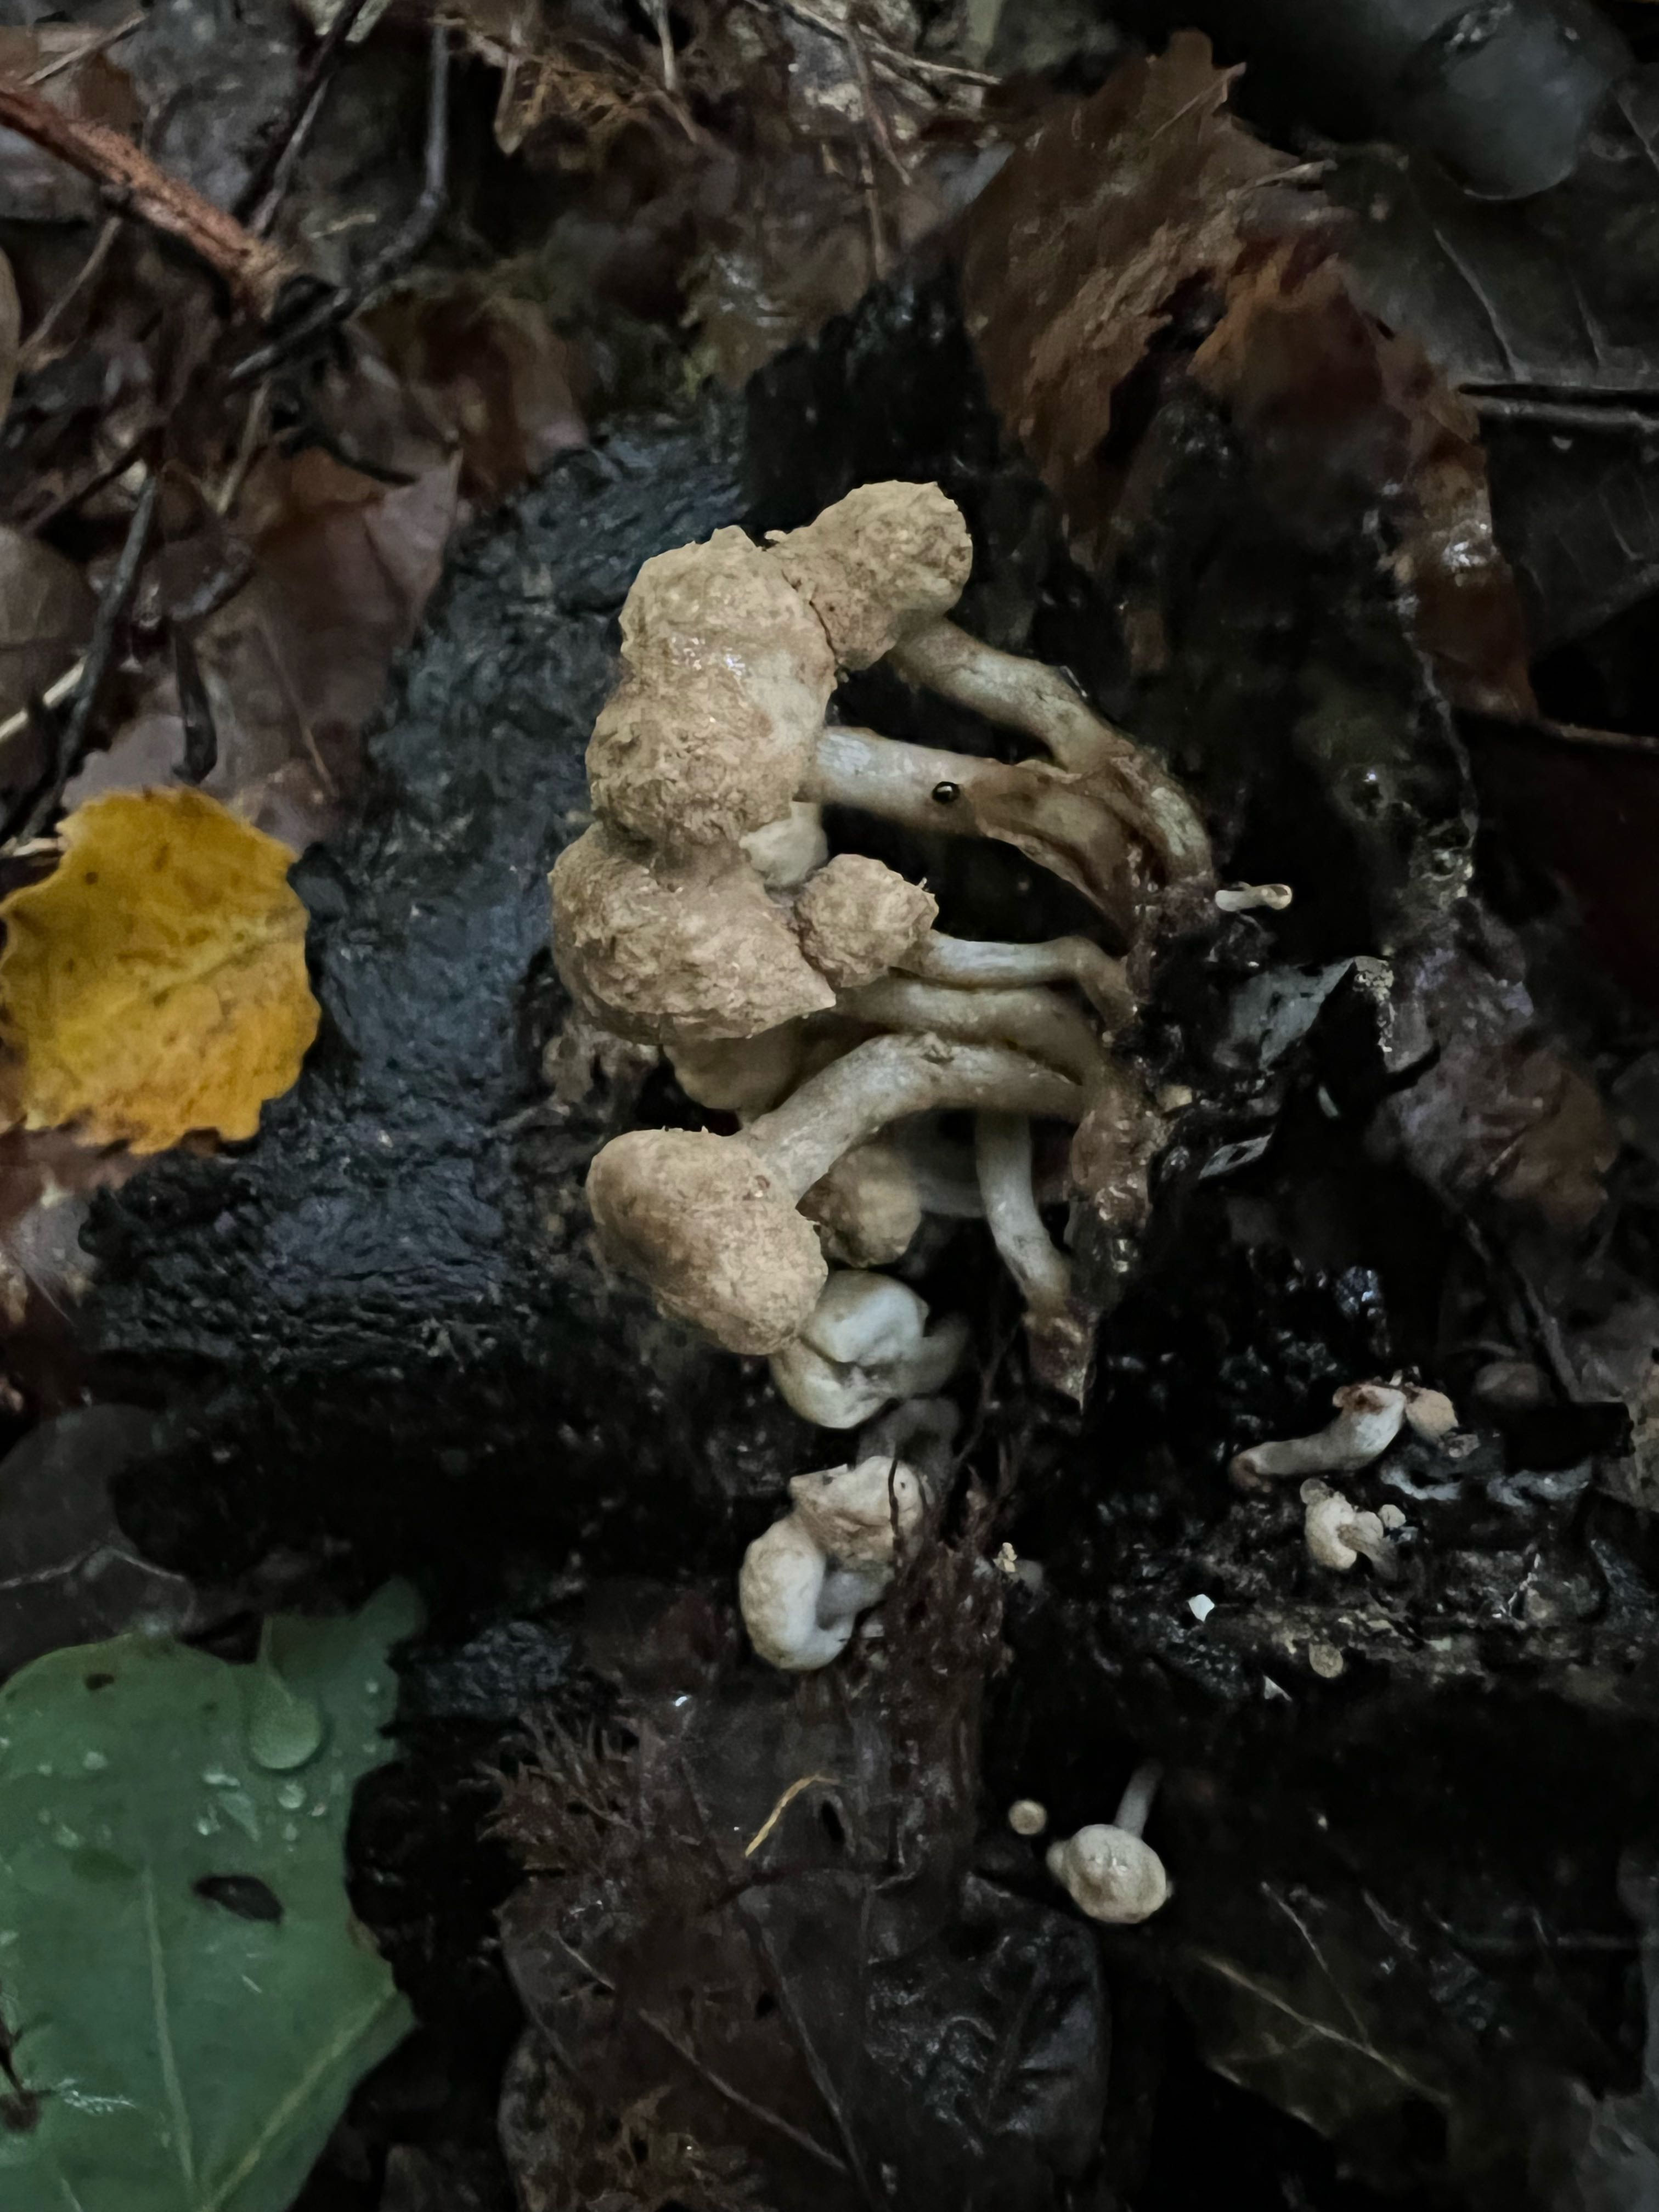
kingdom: Fungi
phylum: Basidiomycota
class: Agaricomycetes
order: Agaricales
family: Lyophyllaceae
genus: Asterophora
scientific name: Asterophora lycoperdoides
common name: brunpudret snyltehat
